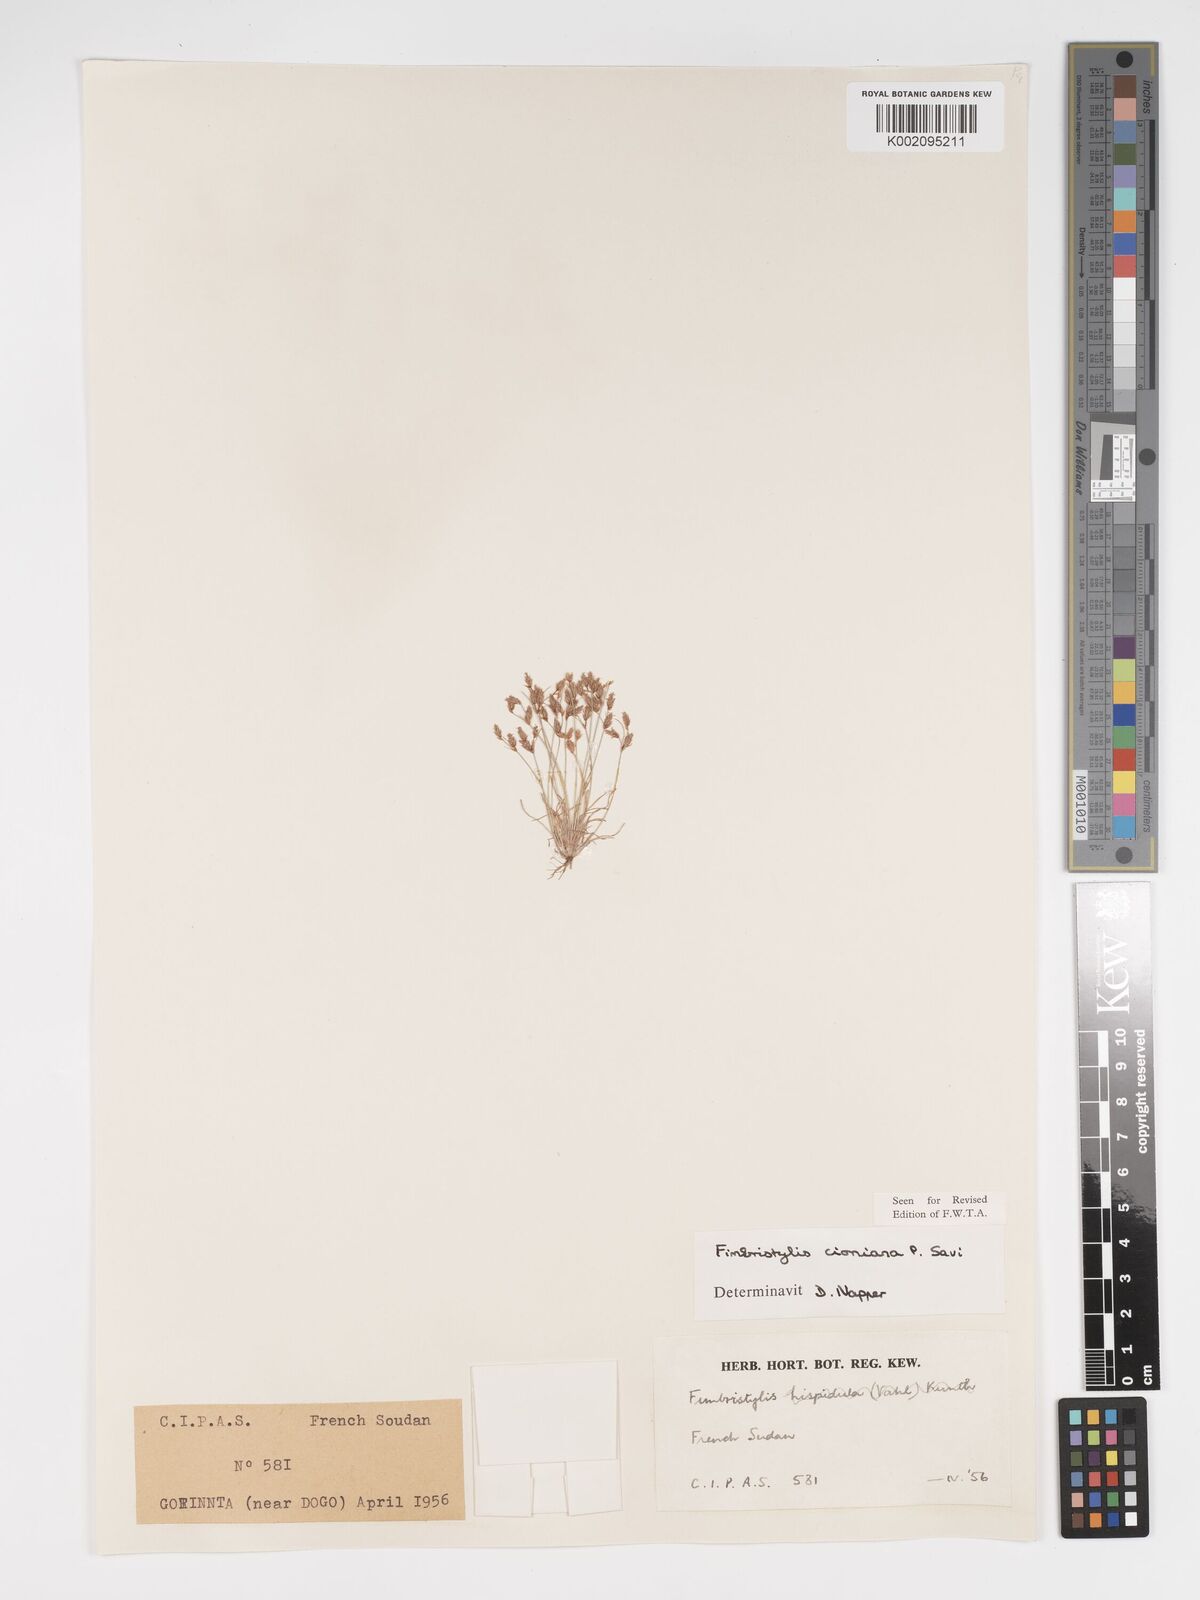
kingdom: Plantae
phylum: Tracheophyta
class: Liliopsida
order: Poales
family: Cyperaceae
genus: Bulbostylis
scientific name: Bulbostylis cioniana
